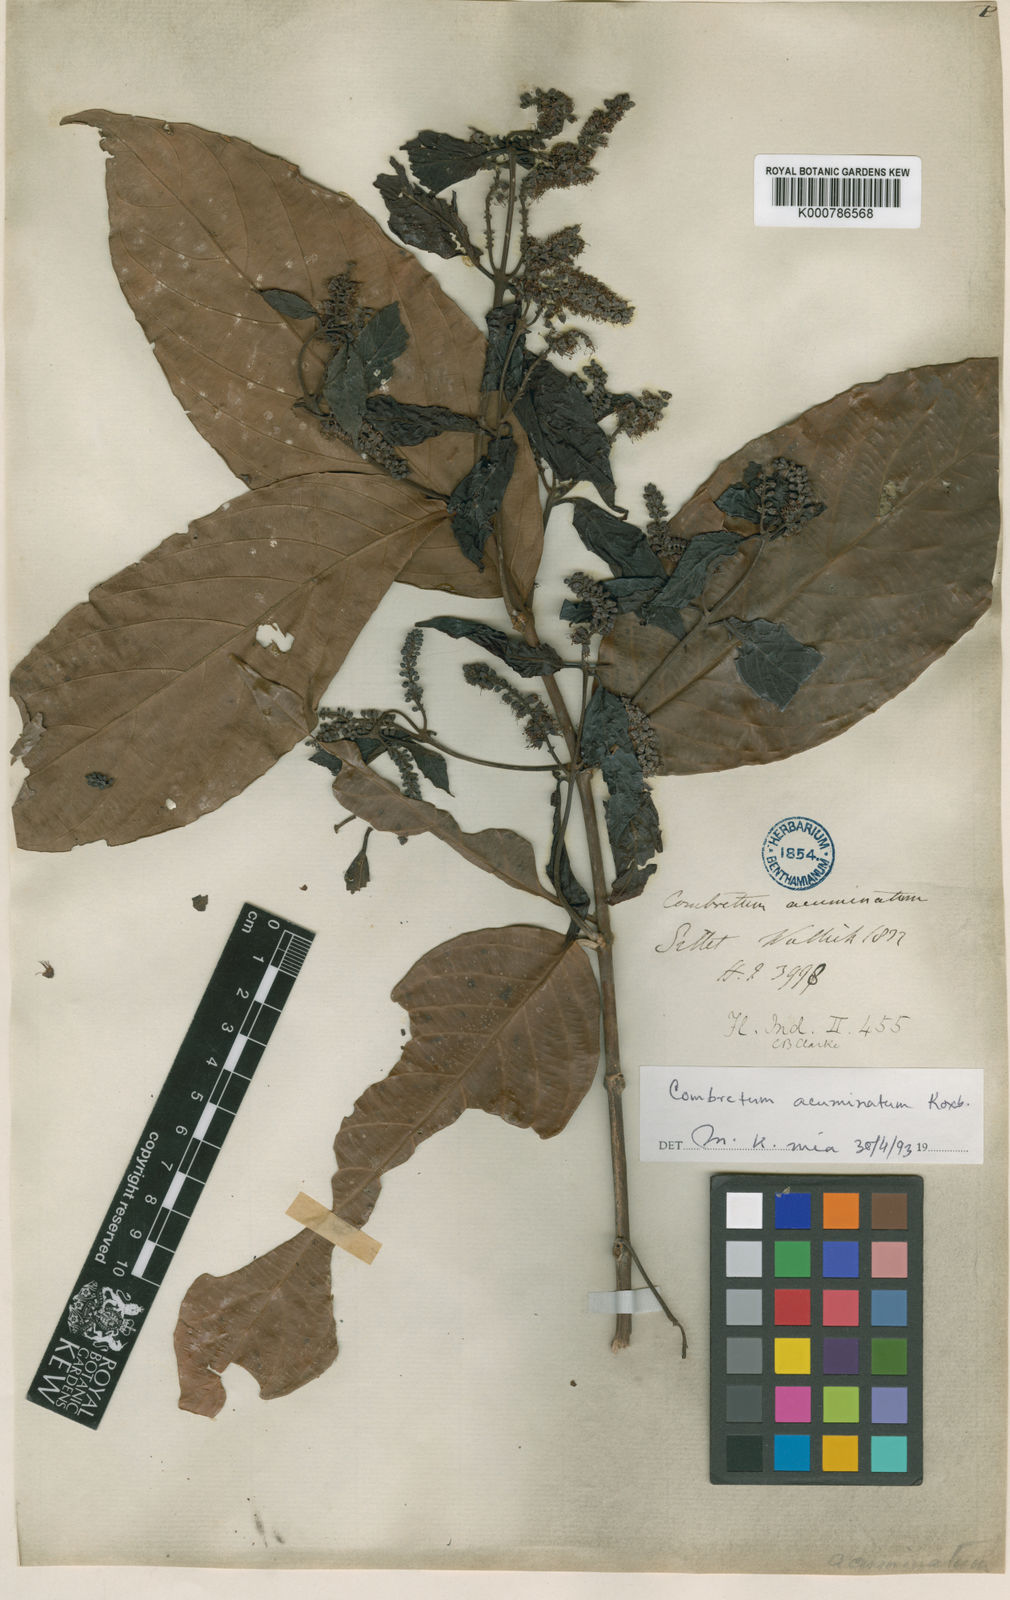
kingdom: Plantae
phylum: Tracheophyta
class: Magnoliopsida
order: Myrtales
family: Combretaceae
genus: Combretum
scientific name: Combretum acuminatum
